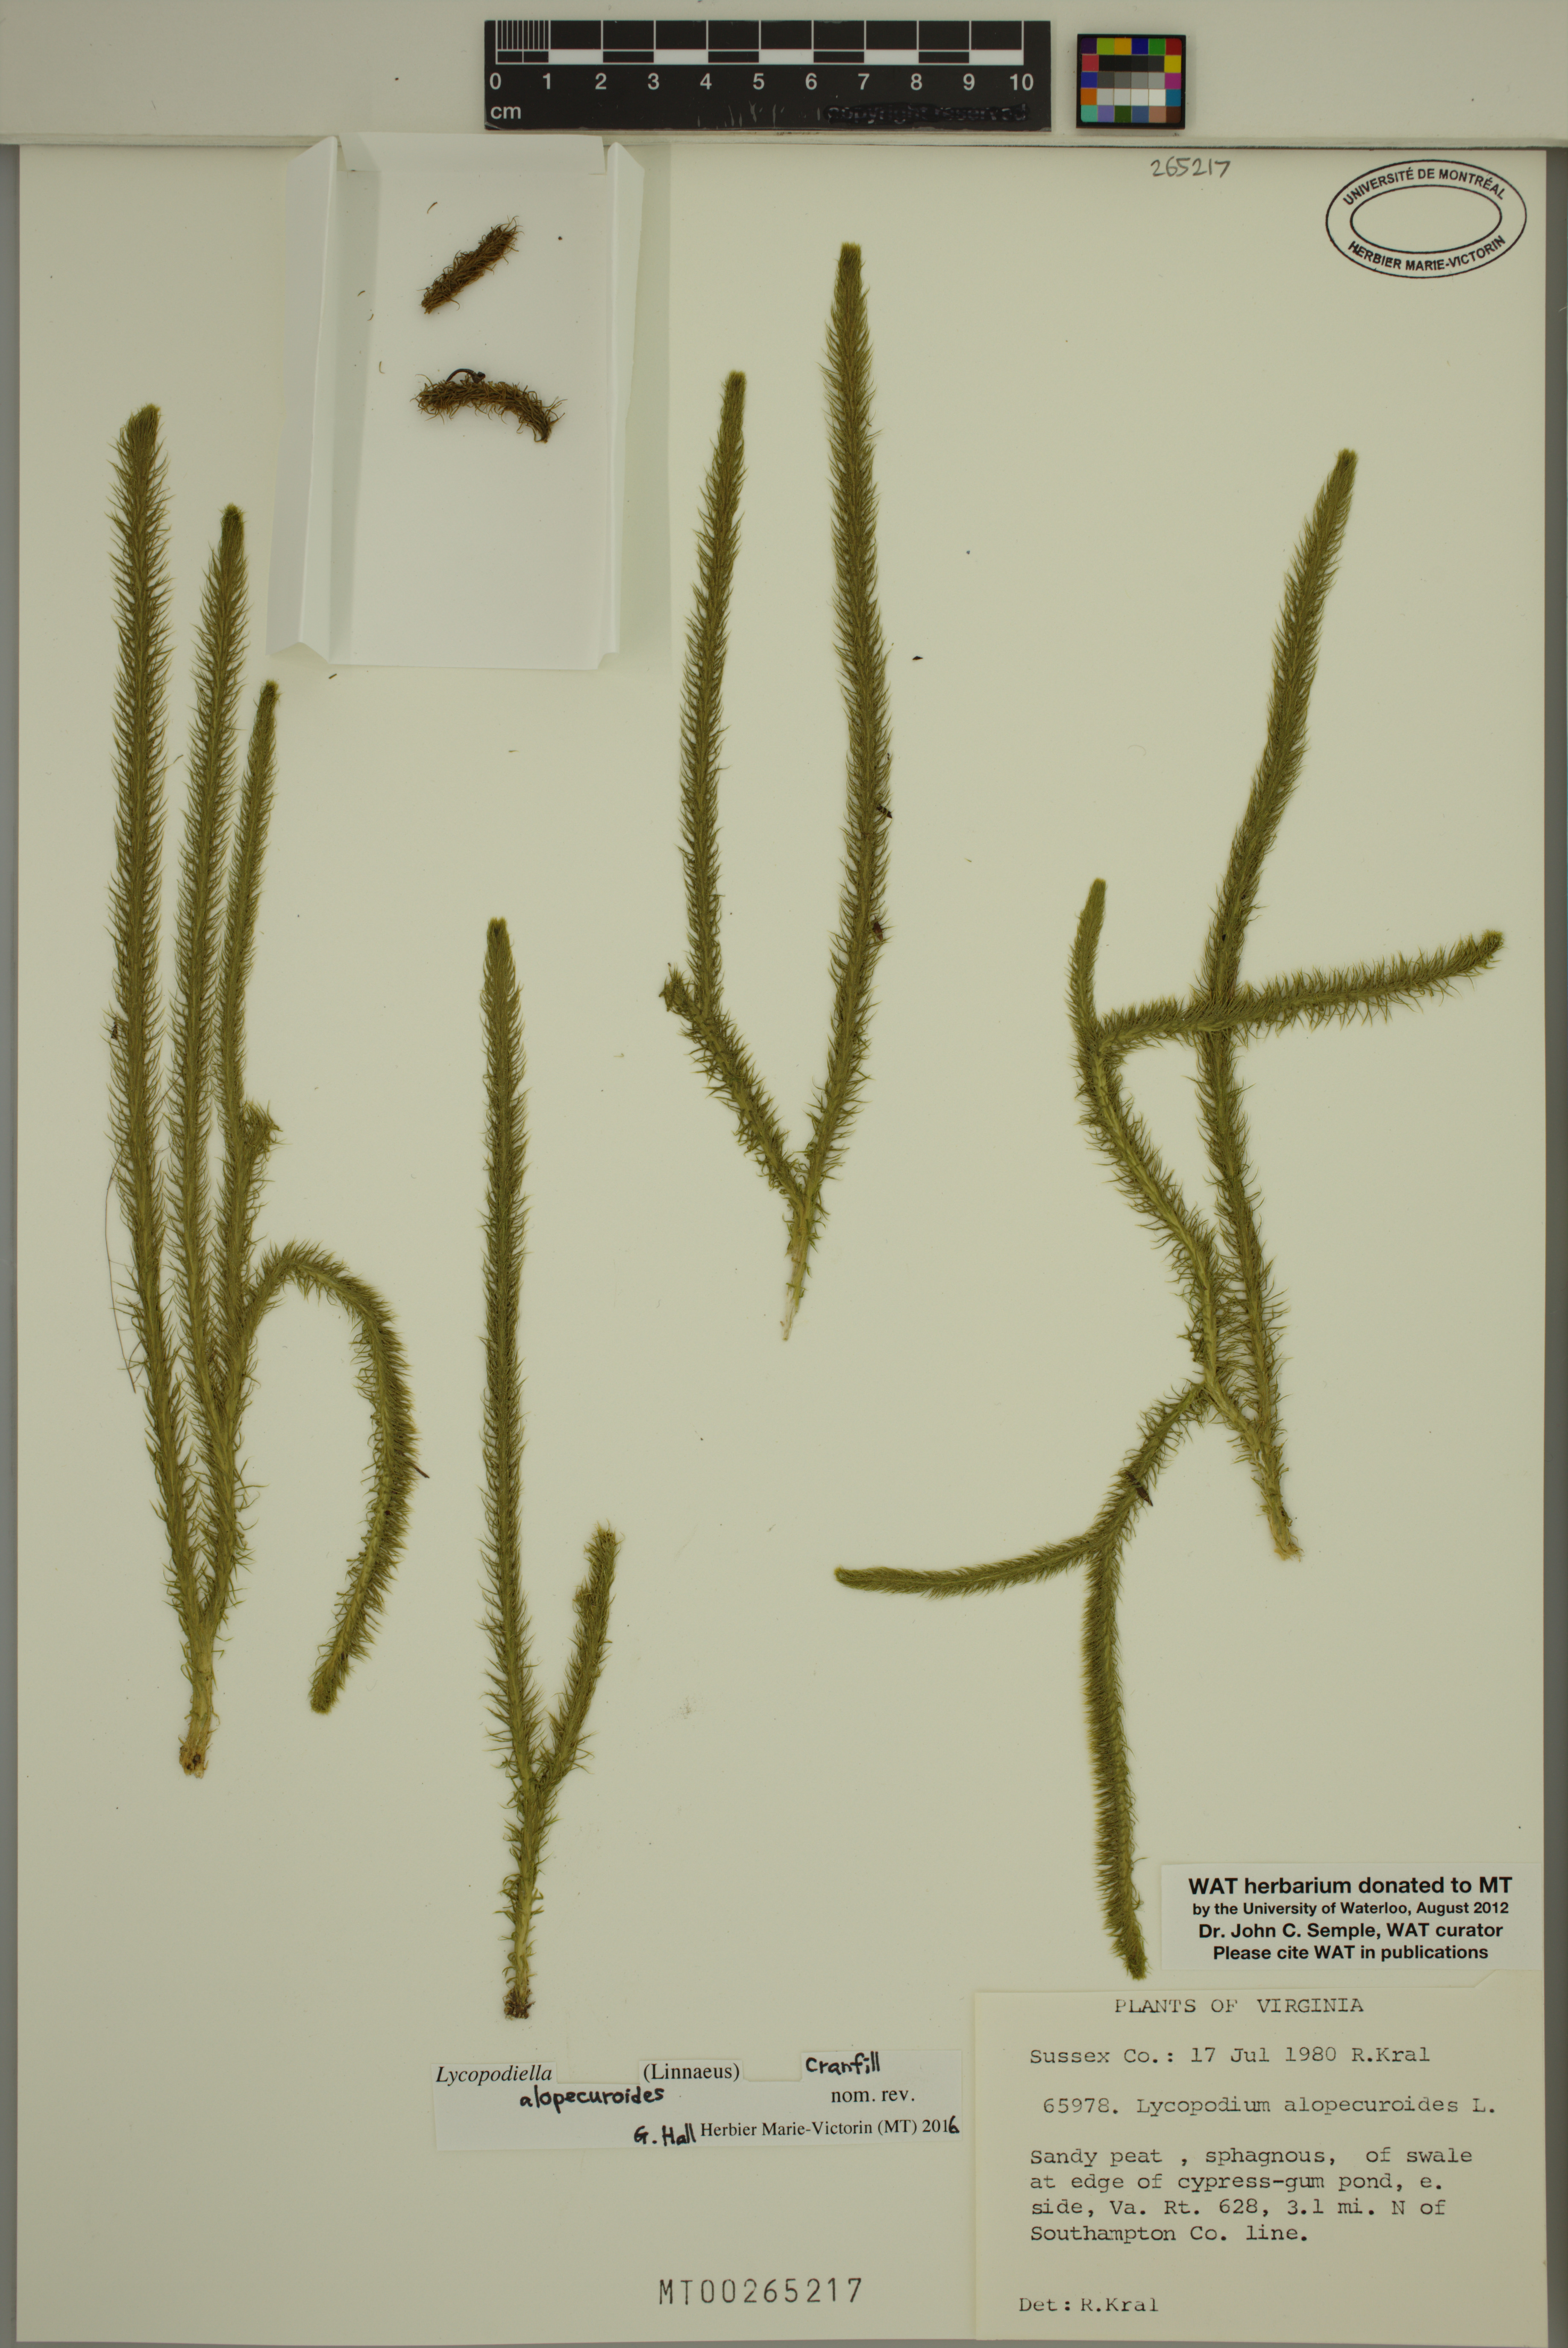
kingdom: Plantae
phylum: Tracheophyta
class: Lycopodiopsida
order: Lycopodiales
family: Lycopodiaceae
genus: Lycopodiella
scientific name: Lycopodiella alopecuroides
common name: Foxtail clubmoss
